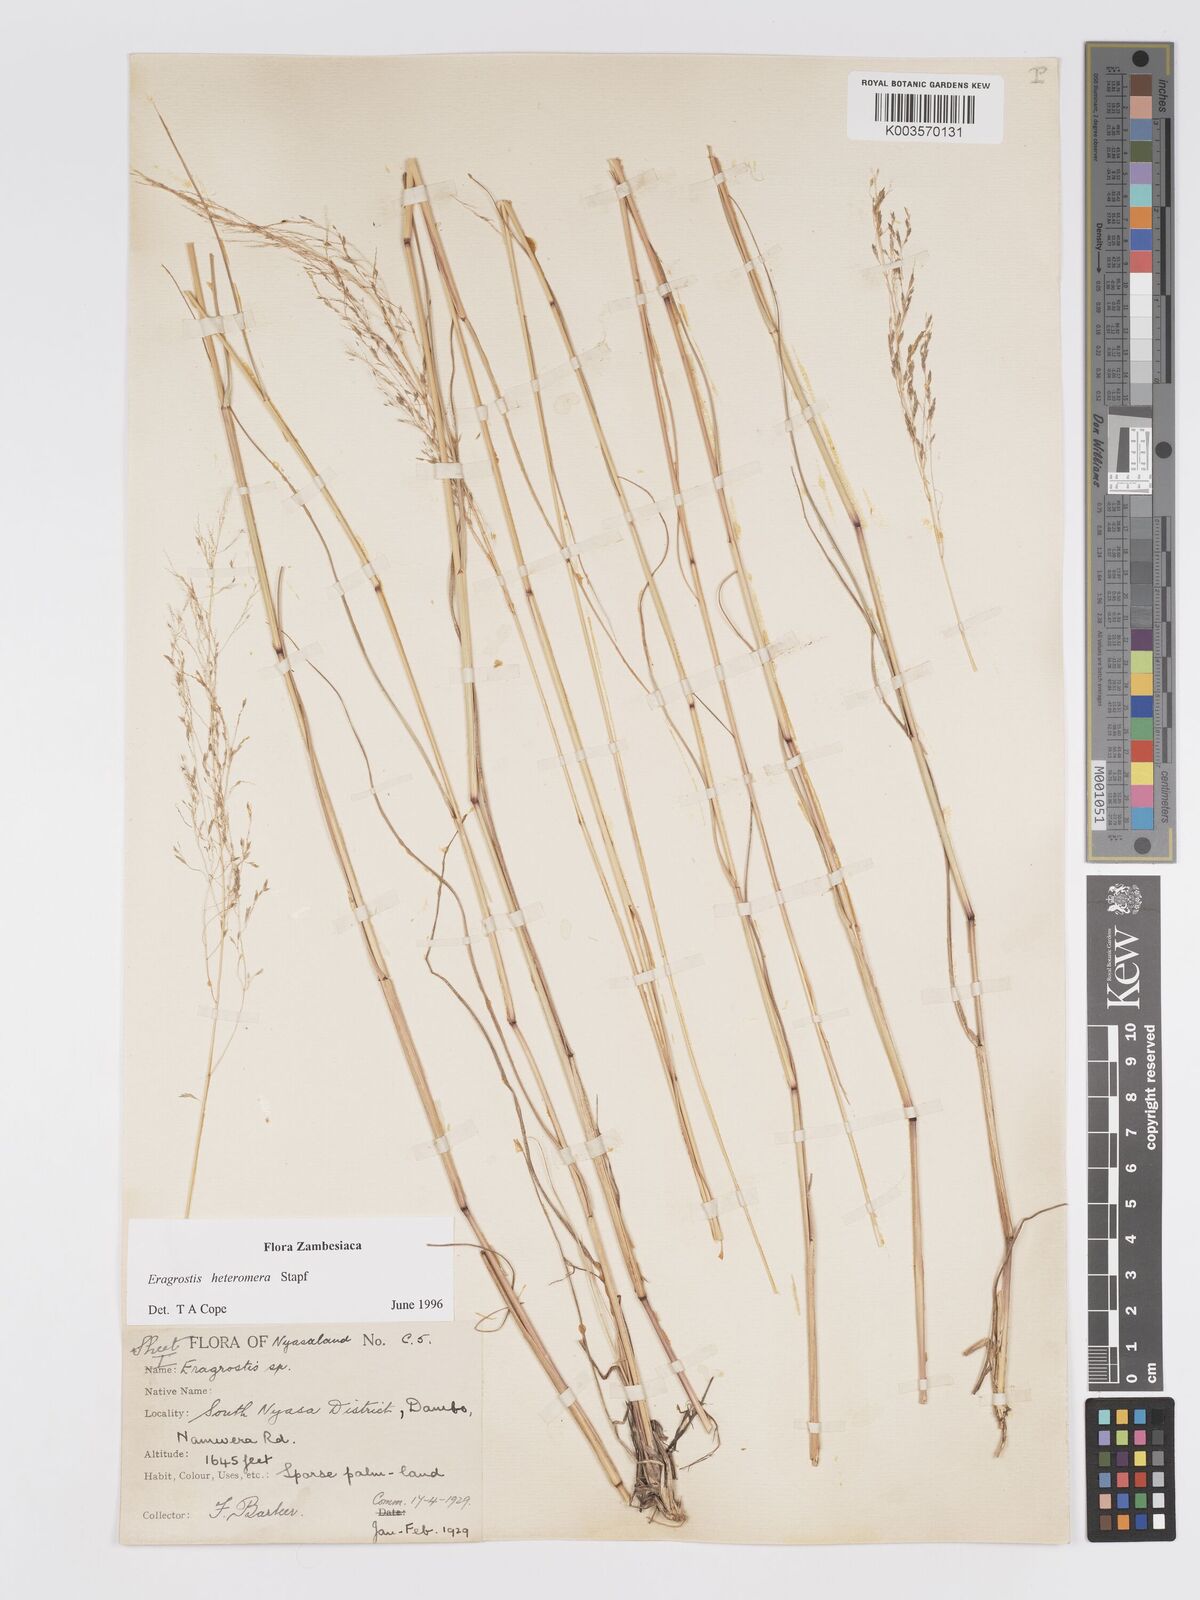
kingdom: Plantae
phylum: Tracheophyta
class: Liliopsida
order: Poales
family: Poaceae
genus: Eragrostis
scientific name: Eragrostis heteromera
